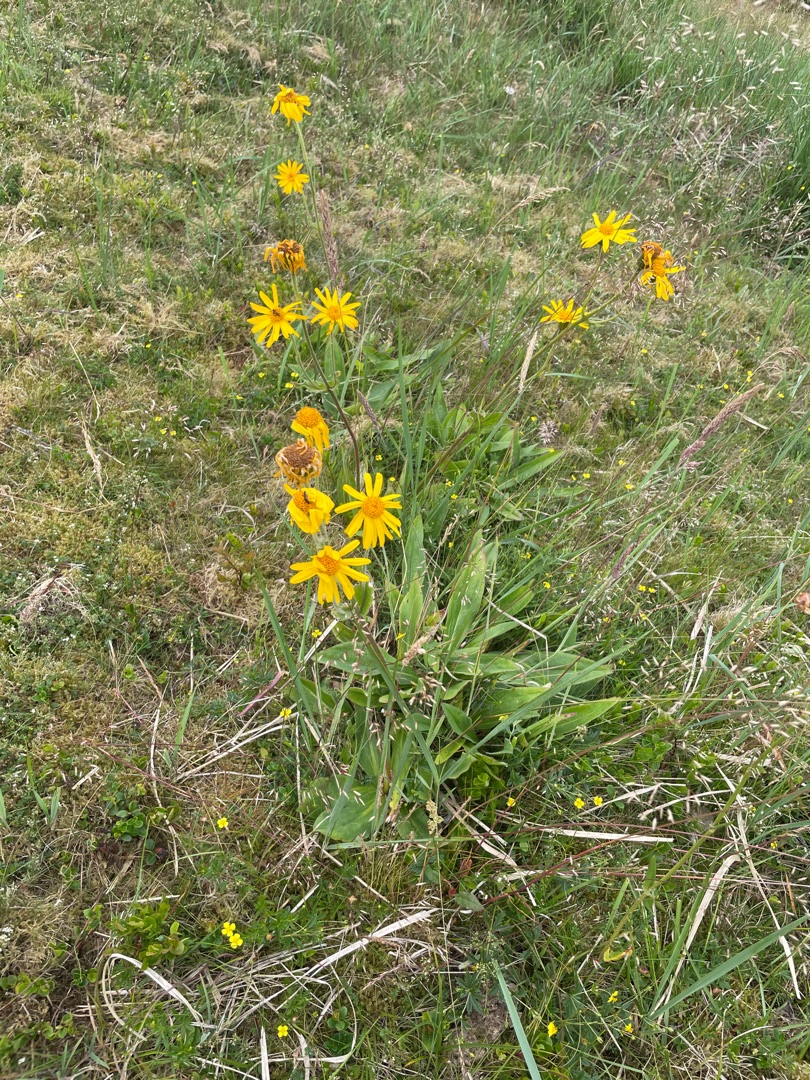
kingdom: Plantae
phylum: Tracheophyta
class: Magnoliopsida
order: Asterales
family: Asteraceae
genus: Arnica
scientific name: Arnica montana
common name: Guldblomme
